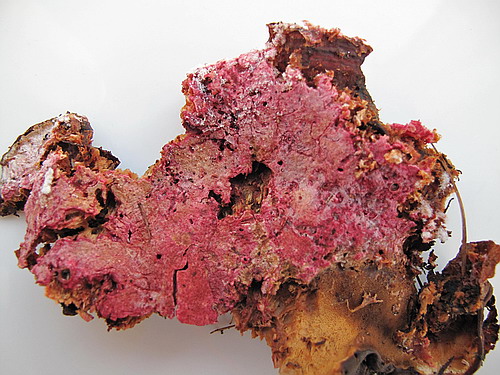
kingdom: Fungi
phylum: Ascomycota
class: Sordariomycetes
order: Hypocreales
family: Hypocreaceae
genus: Hypomyces
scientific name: Hypomyces rosellus
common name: rosa snylteskorpe
